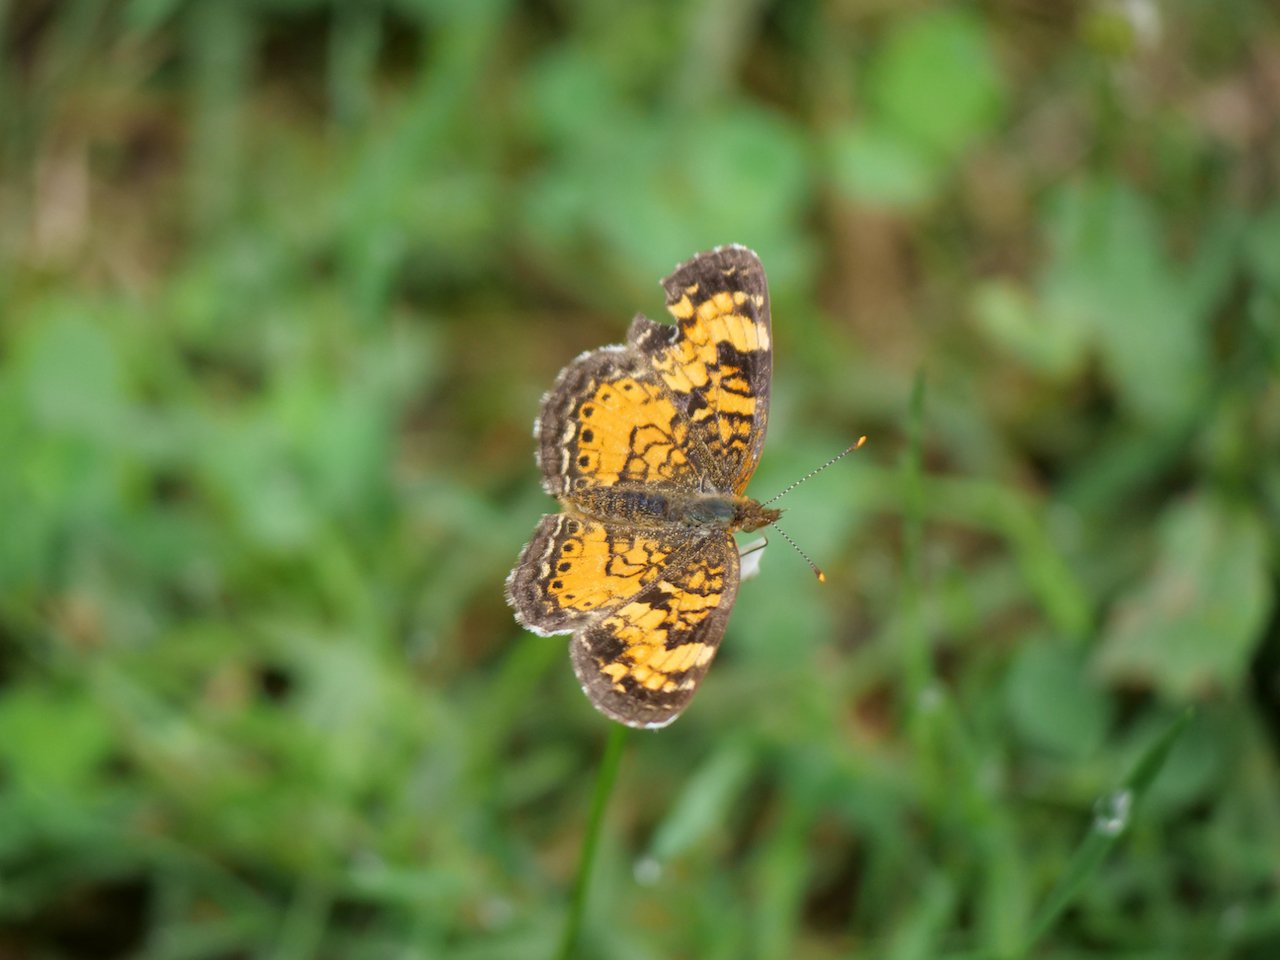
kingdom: Animalia
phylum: Arthropoda
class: Insecta
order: Lepidoptera
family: Nymphalidae
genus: Phyciodes
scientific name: Phyciodes tharos
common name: Northern Crescent
